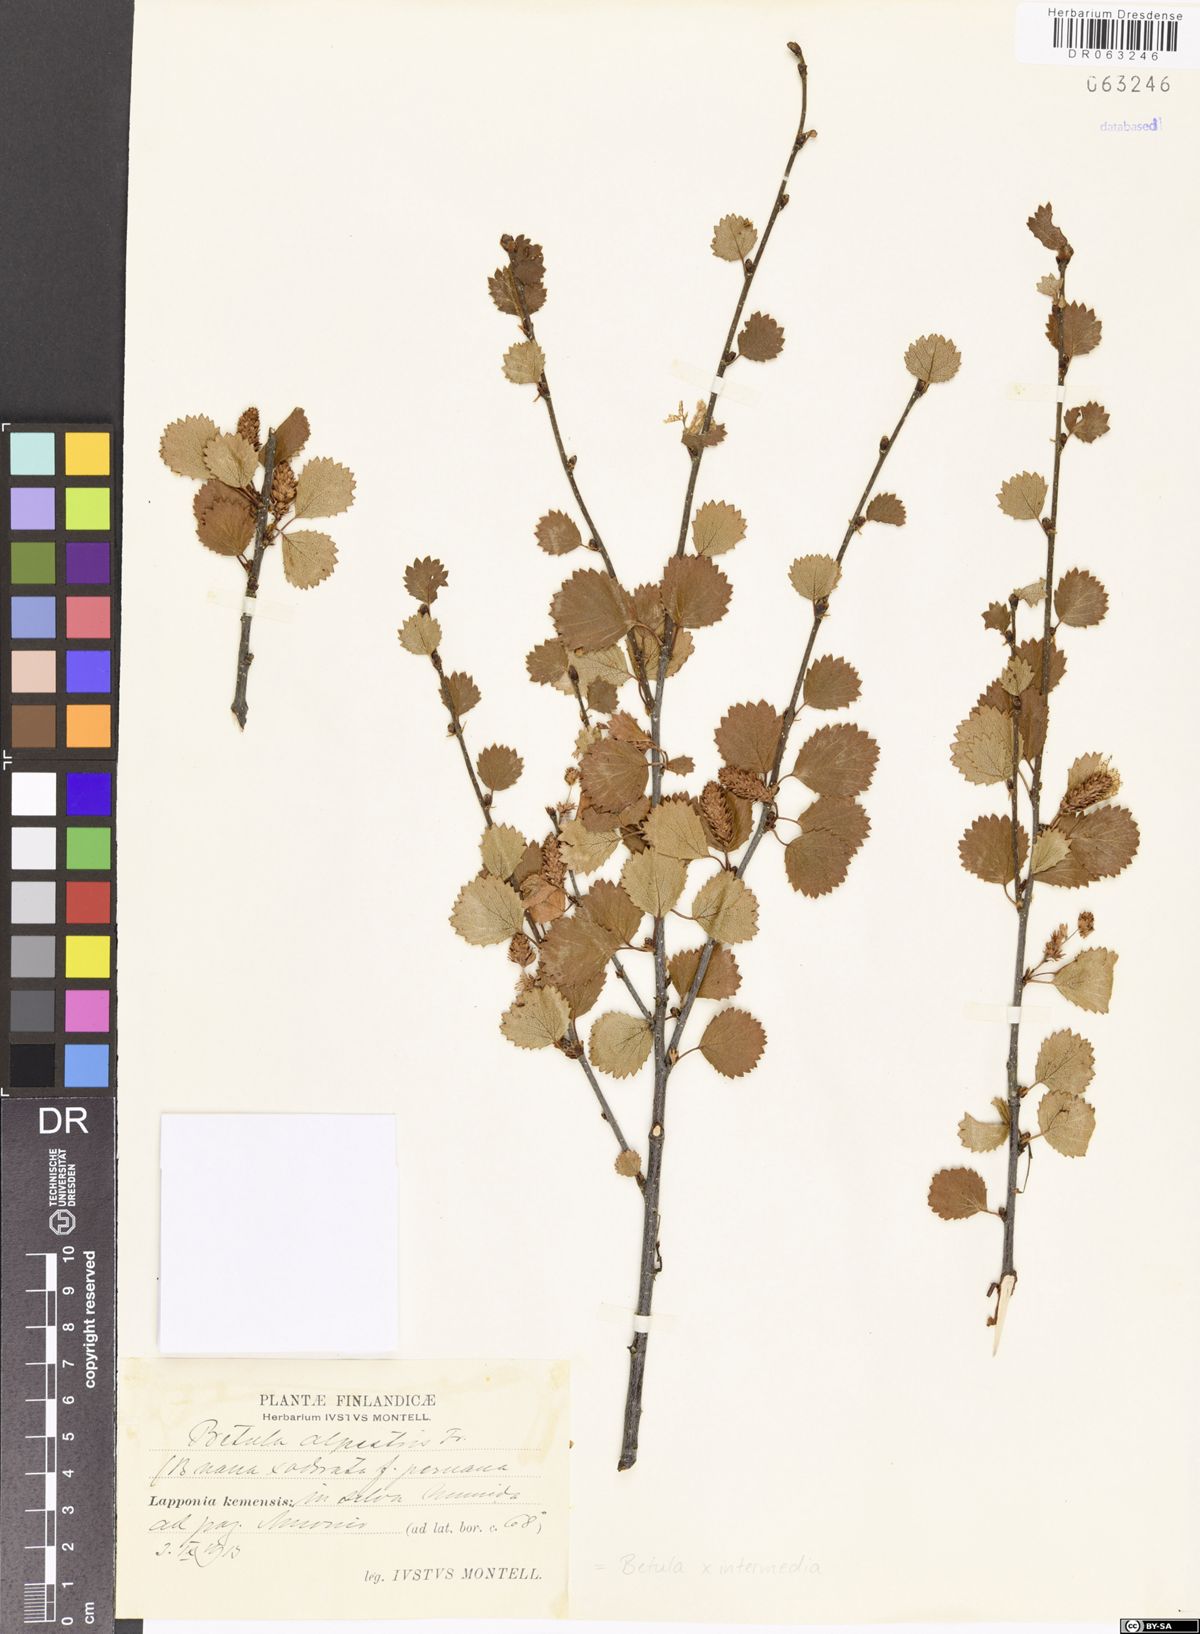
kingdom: Plantae
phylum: Tracheophyta
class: Magnoliopsida
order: Fagales
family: Betulaceae
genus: Betula
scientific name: Betula intermedia
